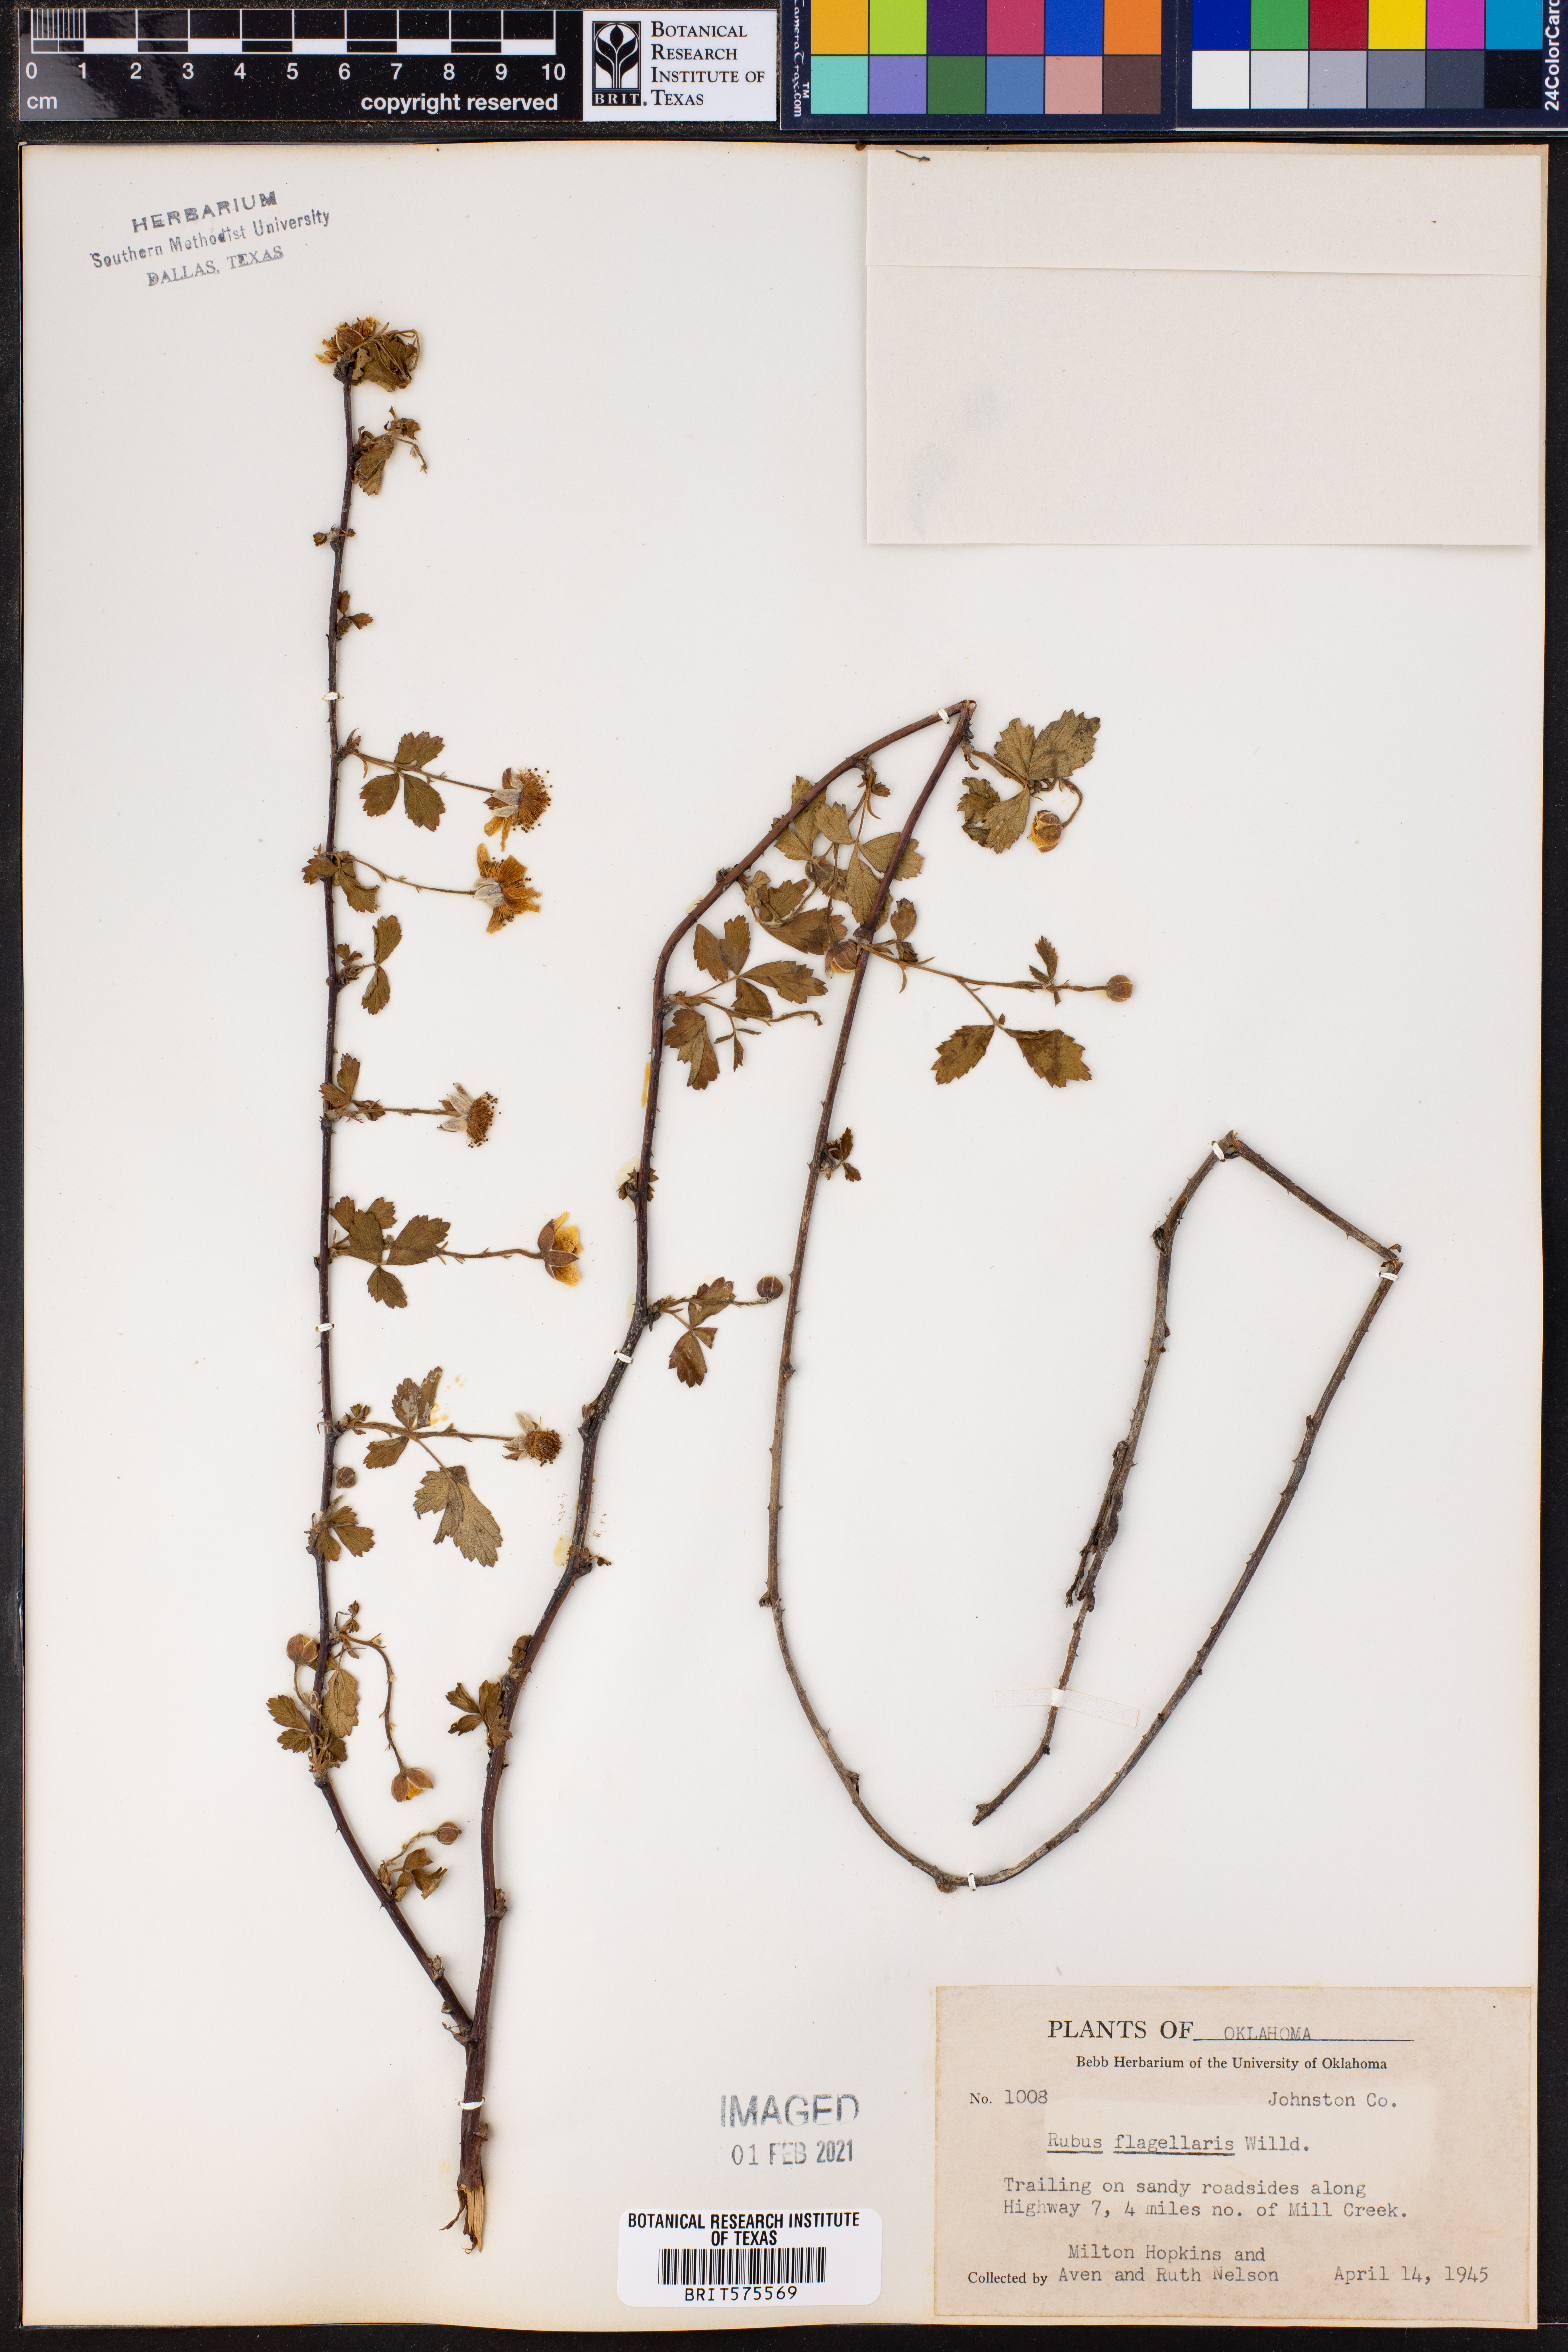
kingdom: Plantae
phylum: Tracheophyta
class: Magnoliopsida
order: Rosales
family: Rosaceae
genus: Rubus
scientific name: Rubus flagellaris
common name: American dewberry
